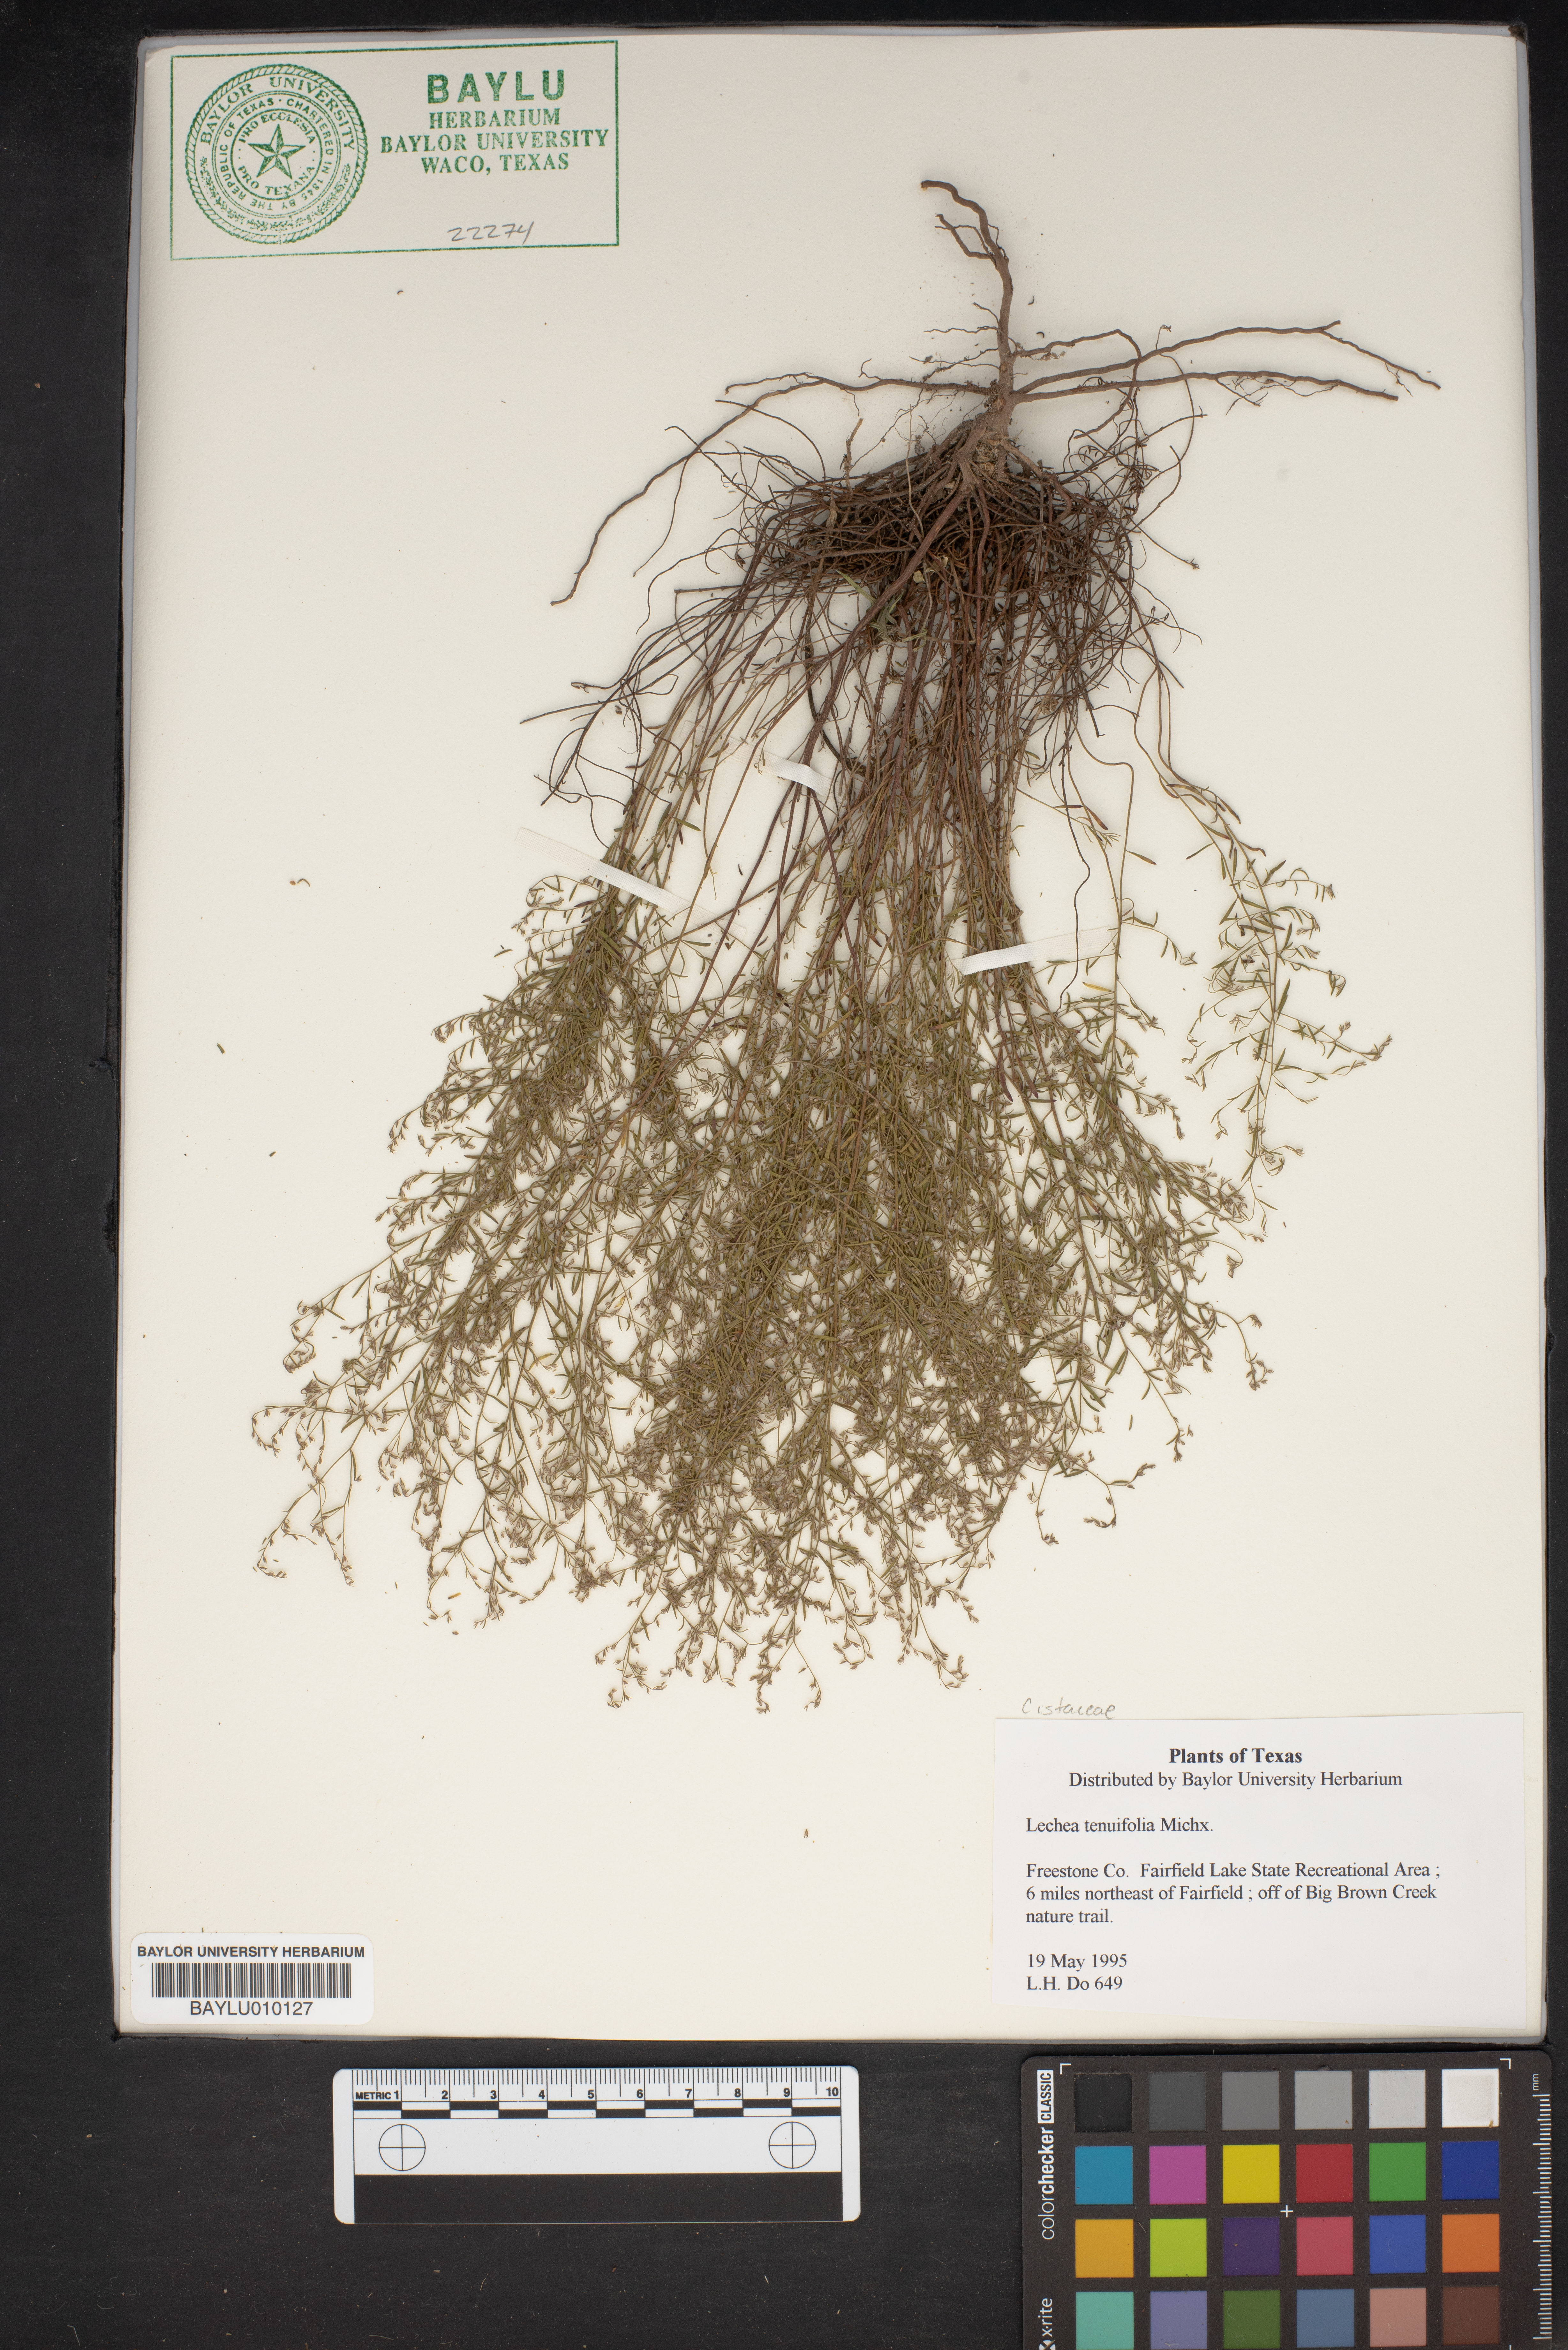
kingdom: Plantae
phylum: Tracheophyta
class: Magnoliopsida
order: Malvales
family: Cistaceae
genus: Lechea
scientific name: Lechea tenuifolia
